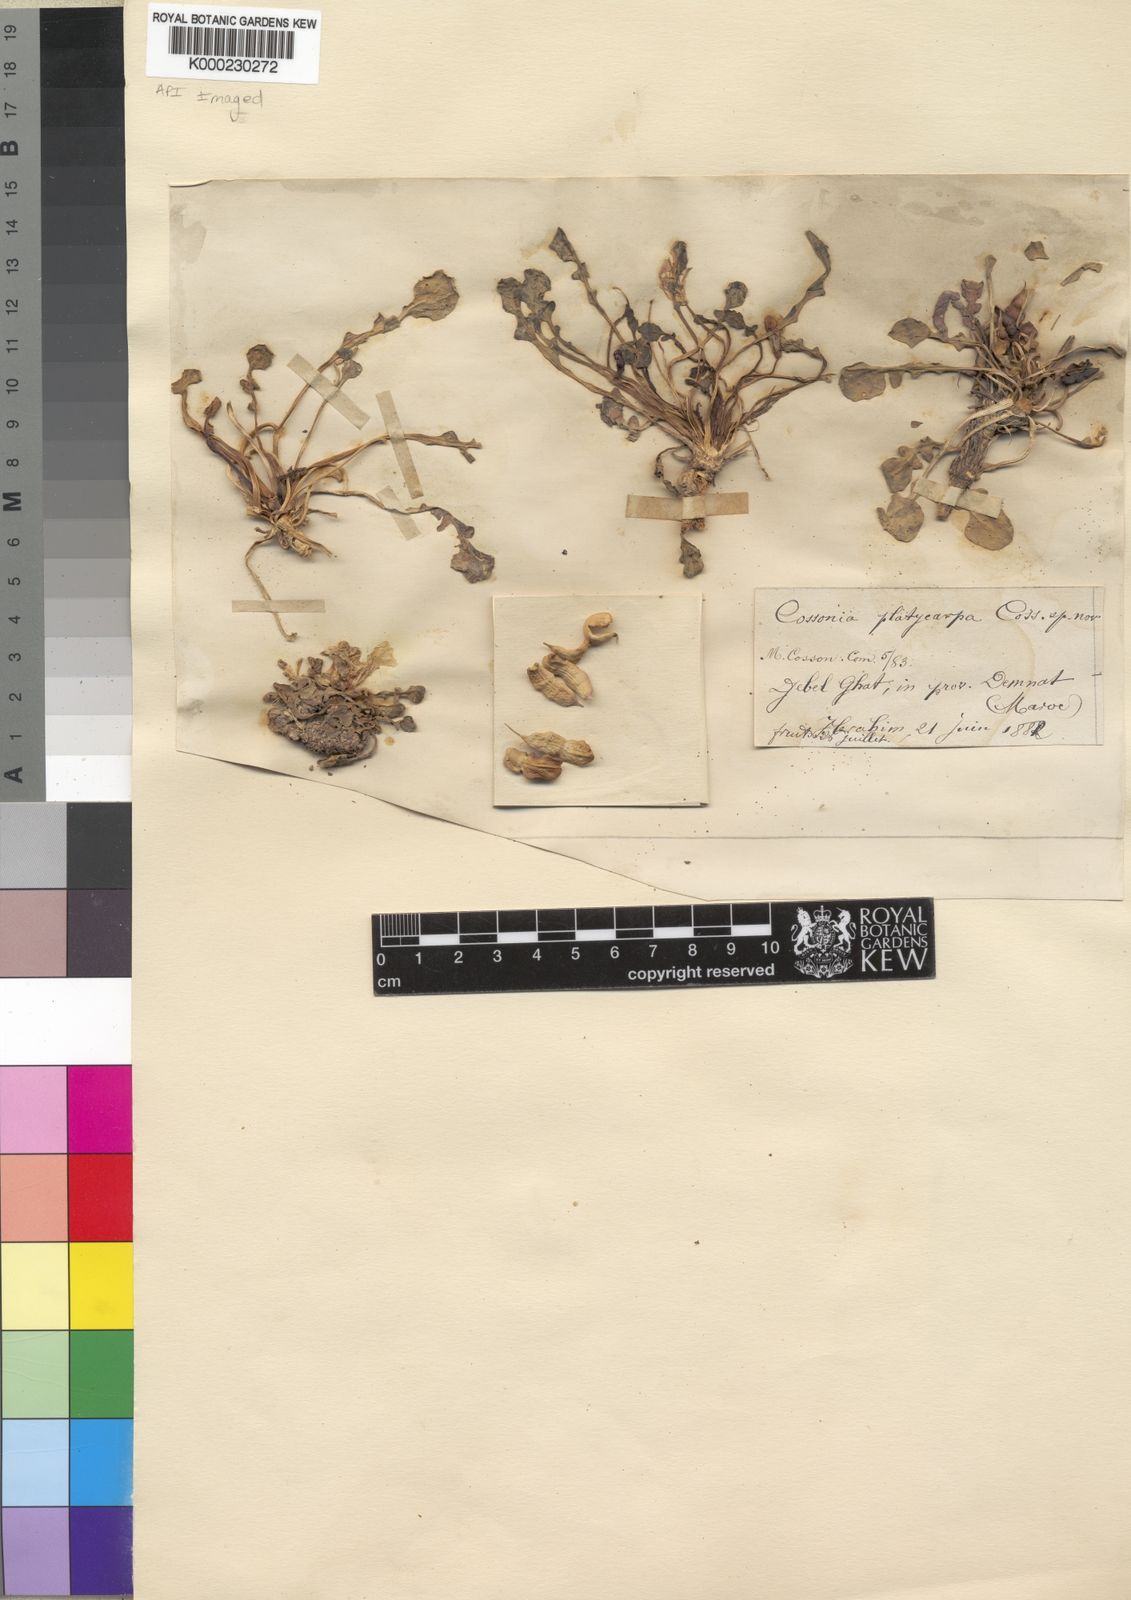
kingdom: Plantae
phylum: Tracheophyta
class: Magnoliopsida
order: Brassicales
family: Brassicaceae
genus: Raffenaldia
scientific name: Raffenaldia platycarpa
